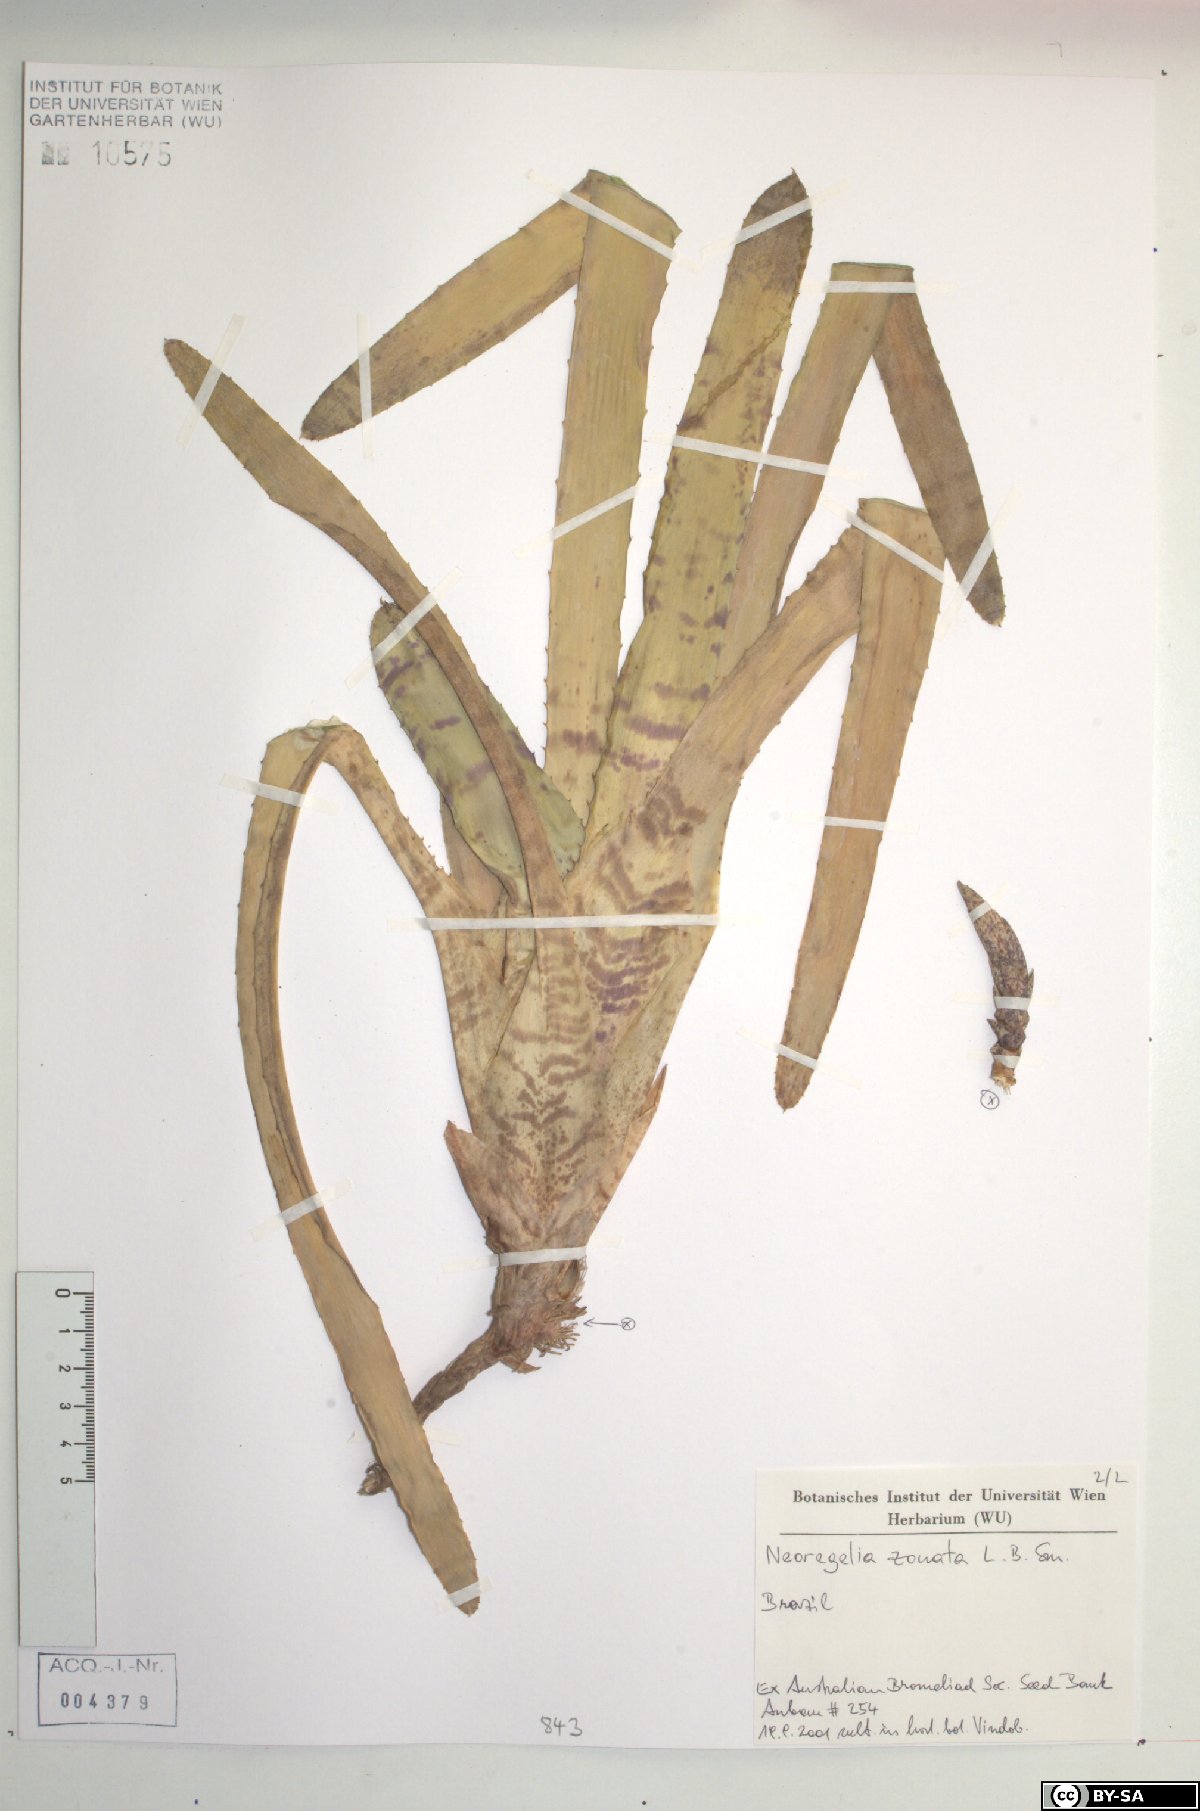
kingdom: Plantae
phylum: Tracheophyta
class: Liliopsida
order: Poales
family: Bromeliaceae
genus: Neoregelia
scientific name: Neoregelia zonata
